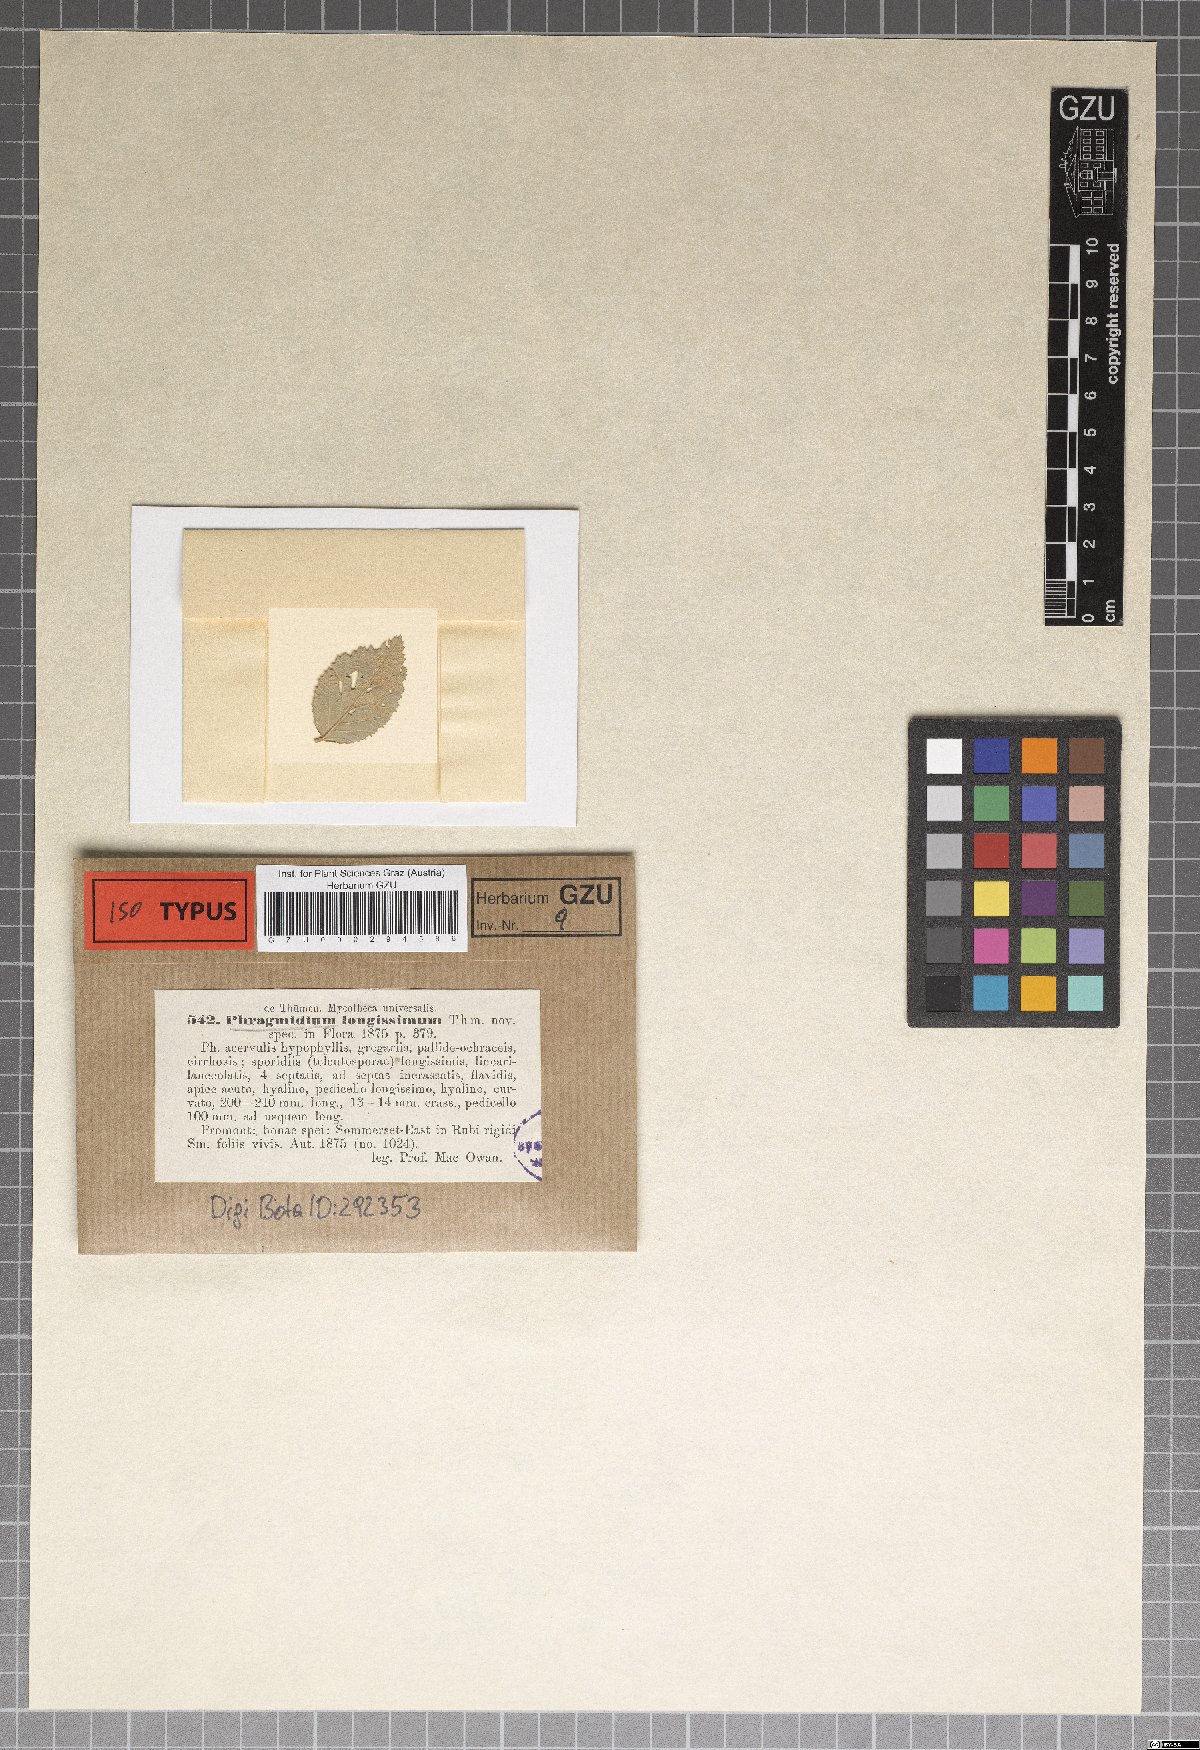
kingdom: Fungi
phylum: Basidiomycota
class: Pucciniomycetes
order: Pucciniales
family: Phragmidiaceae
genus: Hamaspora
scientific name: Hamaspora longissima
